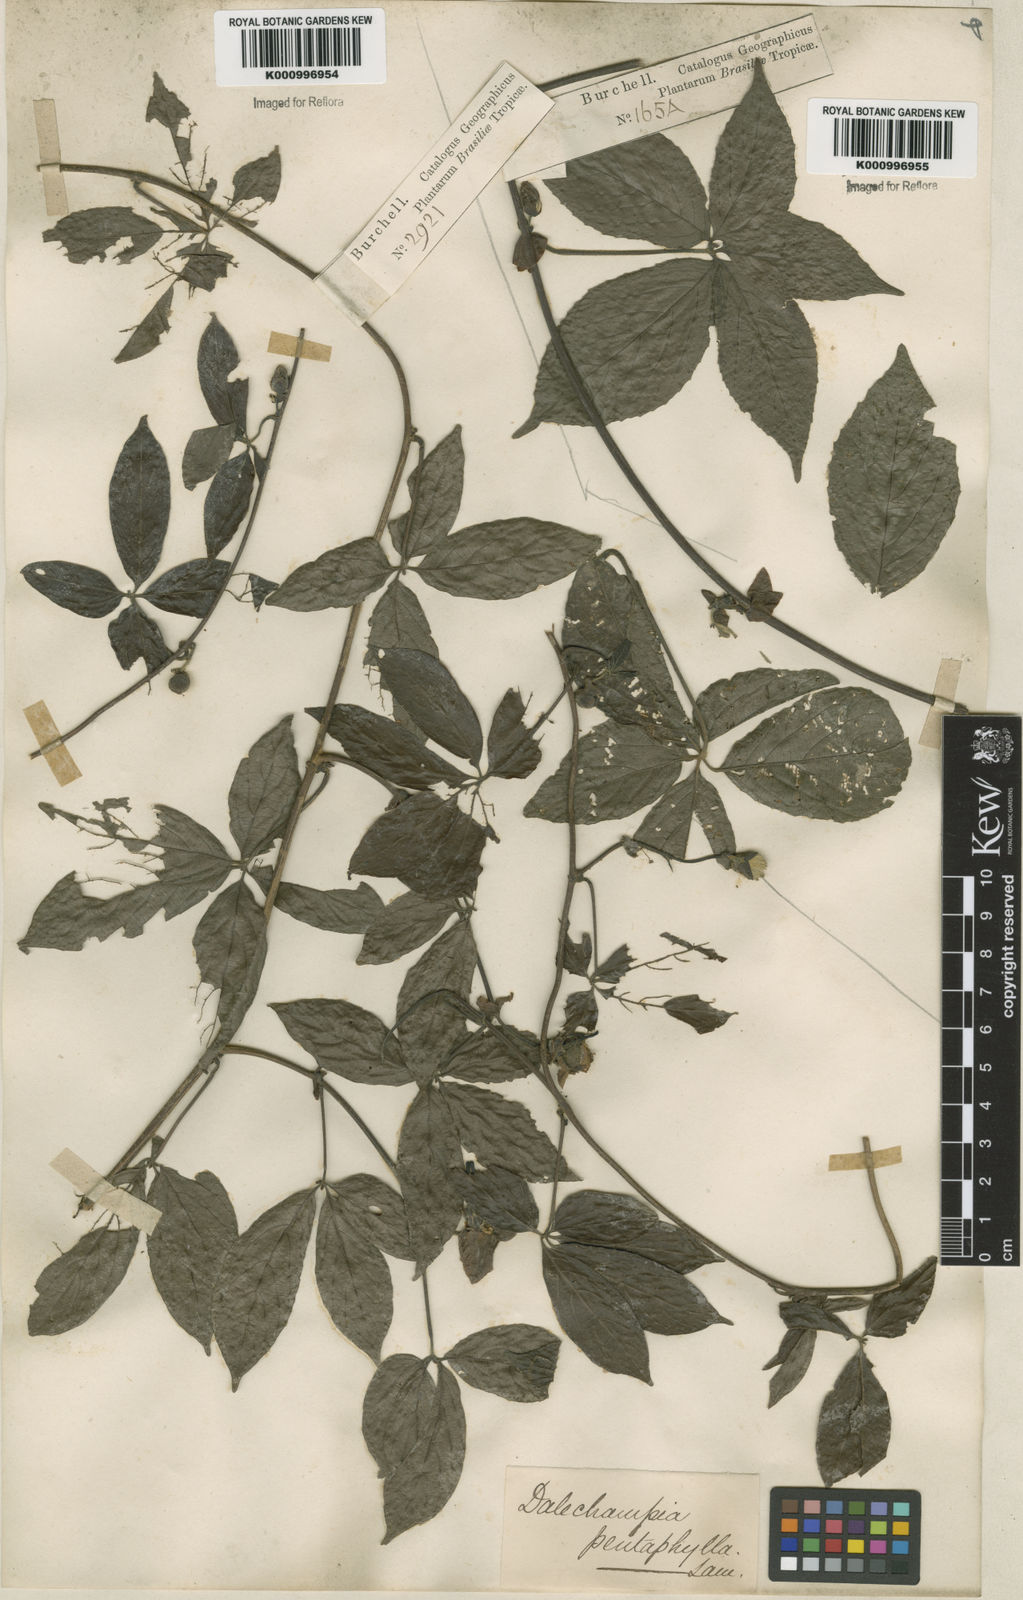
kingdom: Plantae
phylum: Tracheophyta
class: Magnoliopsida
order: Malpighiales
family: Euphorbiaceae
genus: Dalechampia
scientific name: Dalechampia pentaphylla
